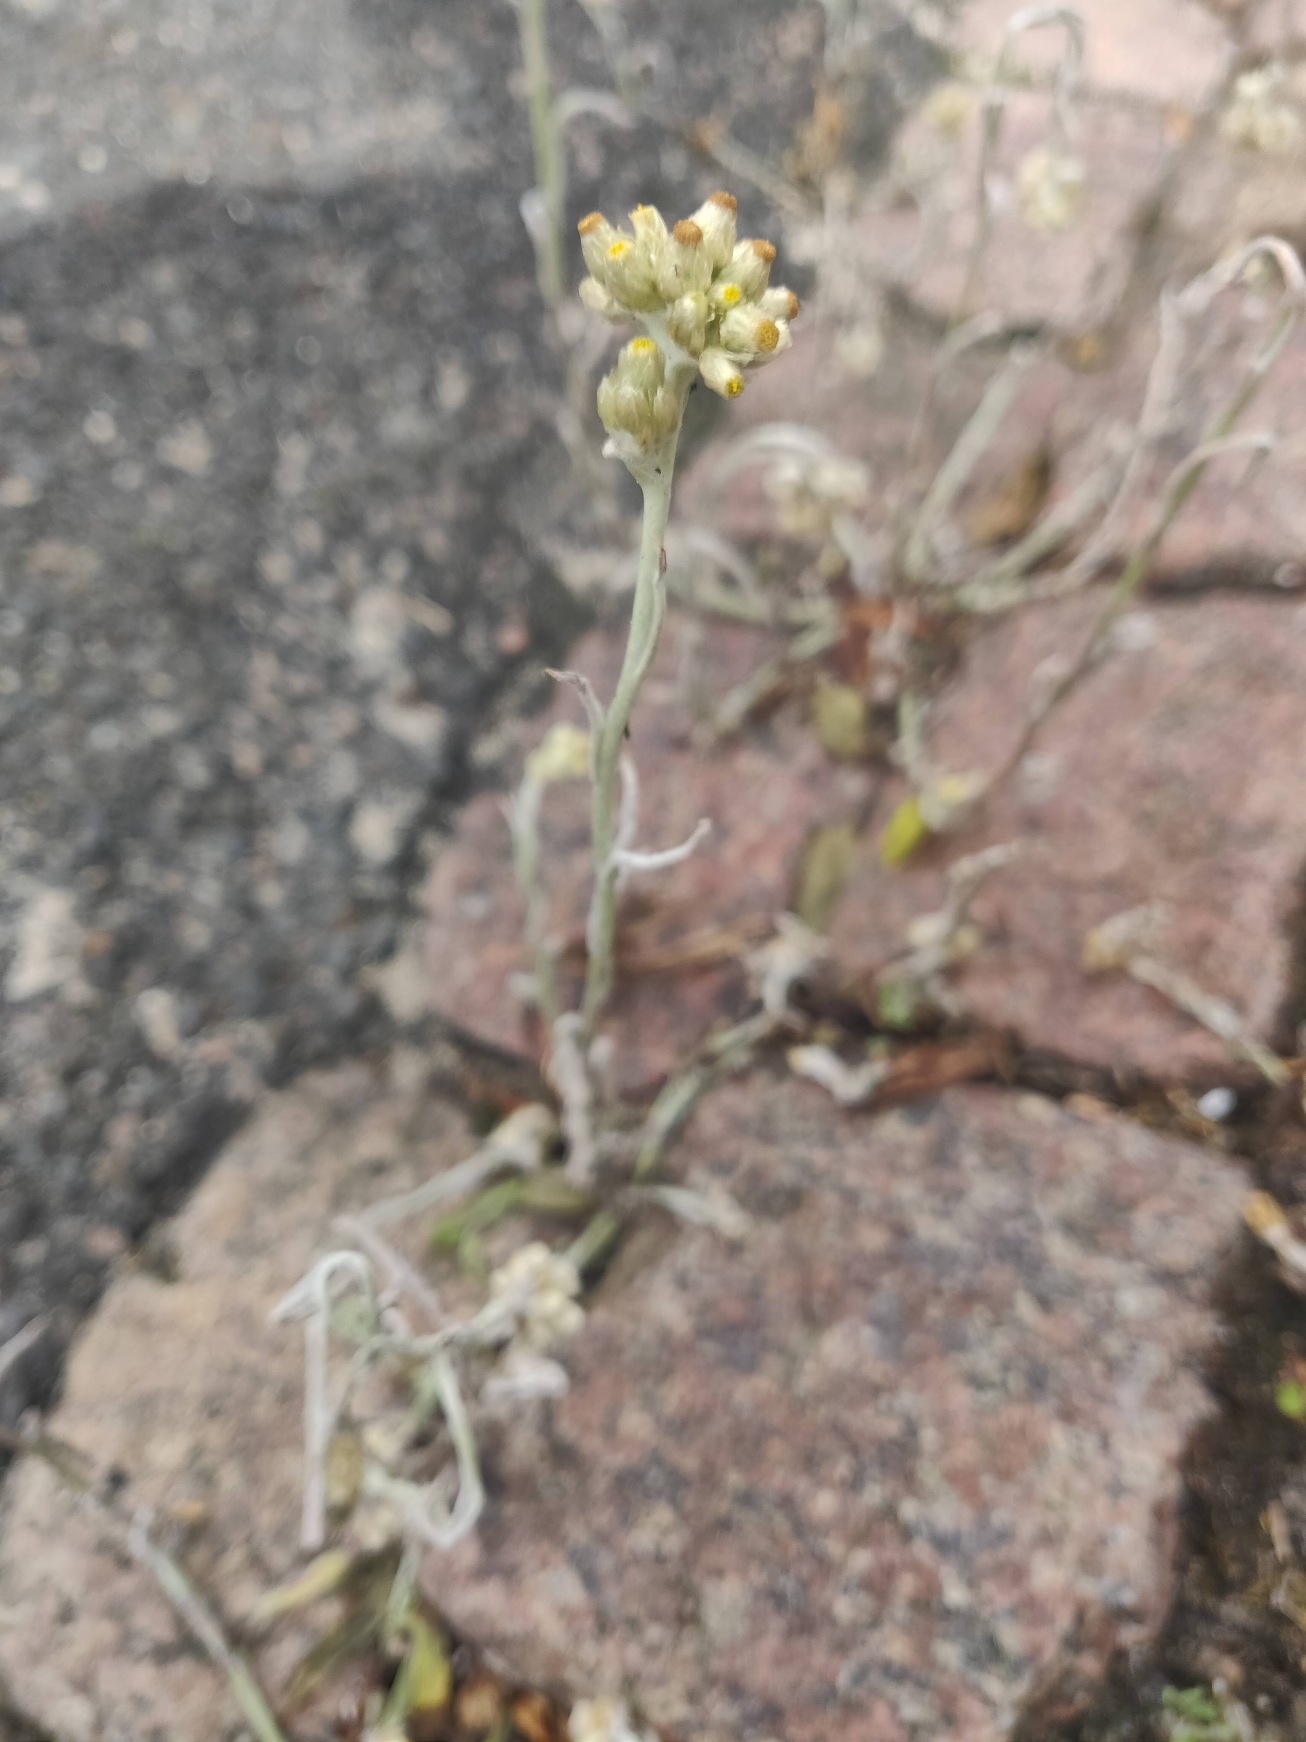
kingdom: Plantae
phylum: Tracheophyta
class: Magnoliopsida
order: Asterales
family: Asteraceae
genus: Helichrysum
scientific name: Helichrysum luteoalbum
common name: Gulhvid evighedsblomst
